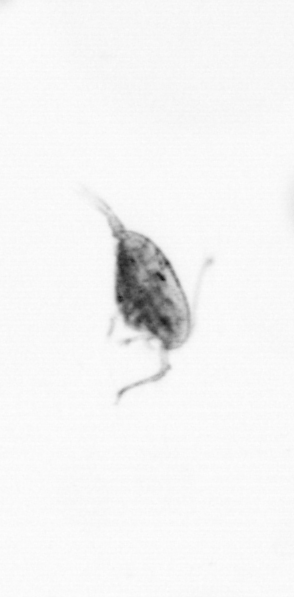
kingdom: Animalia
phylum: Arthropoda
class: Copepoda
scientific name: Copepoda
